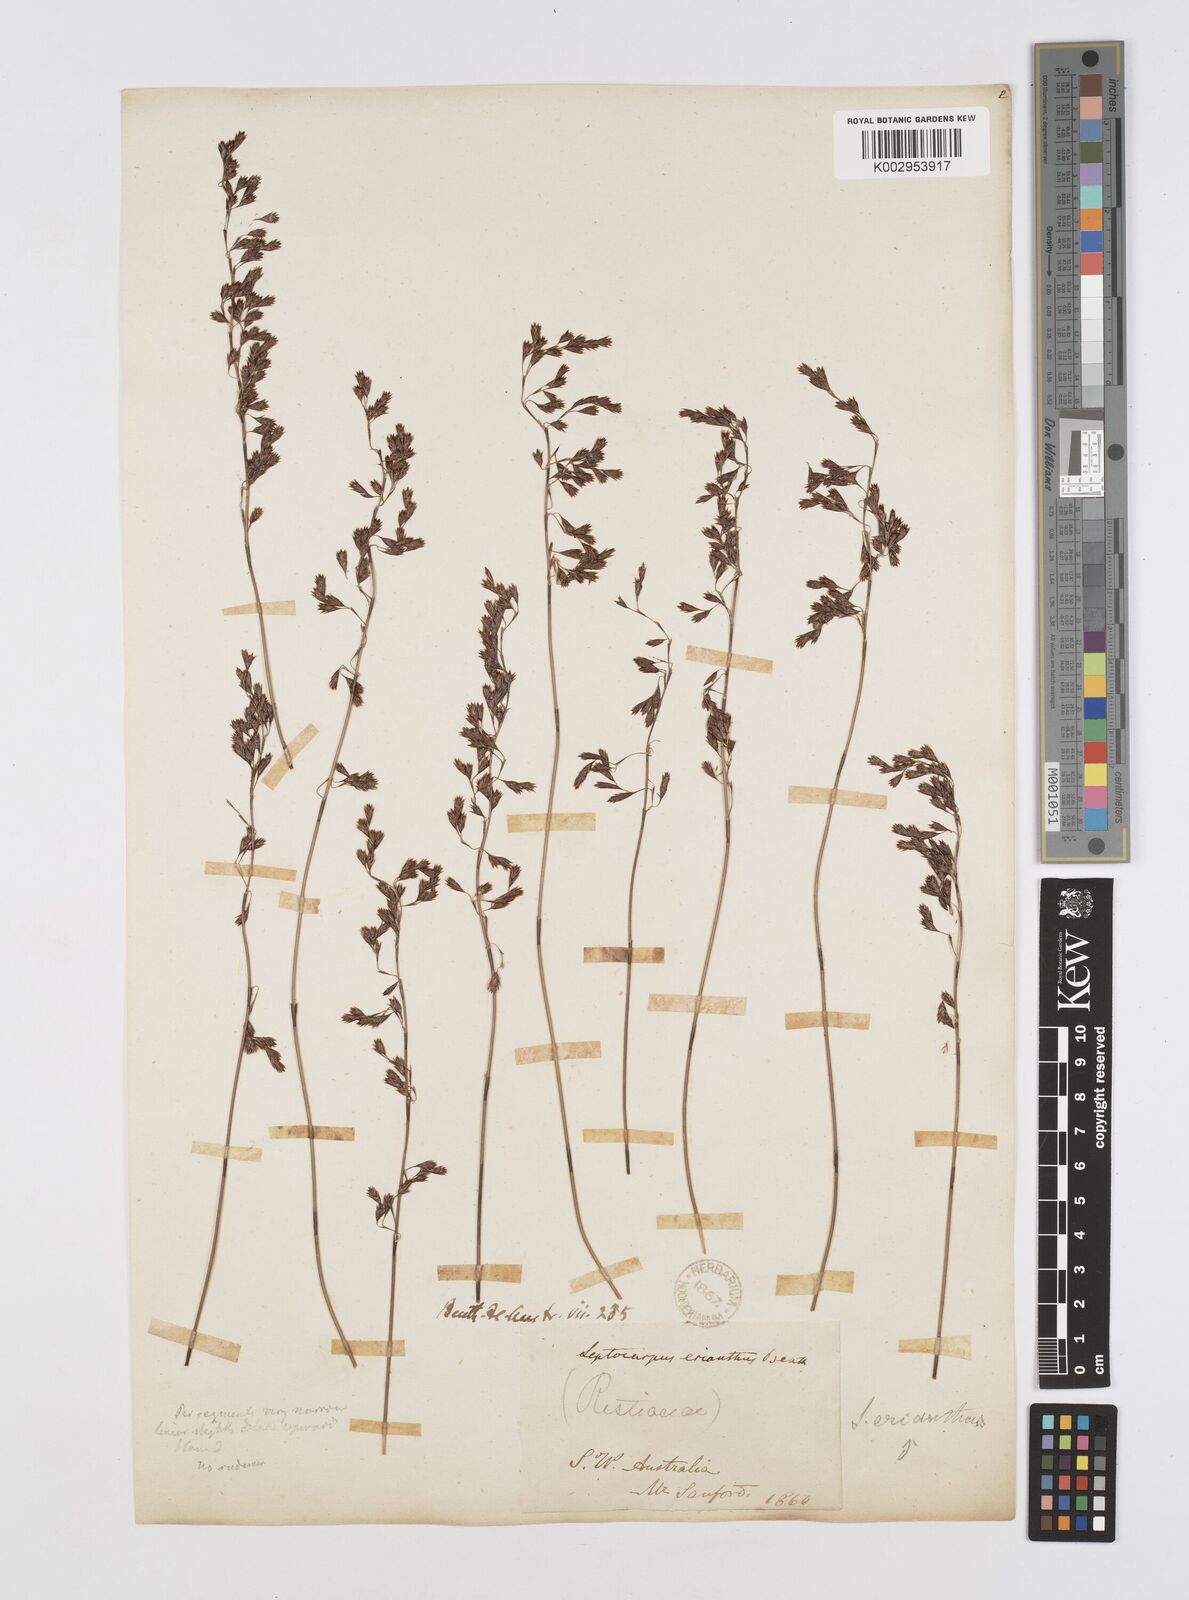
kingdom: Plantae
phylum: Tracheophyta
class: Liliopsida
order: Poales
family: Restionaceae
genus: Chaetanthus
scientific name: Chaetanthus aristatus
